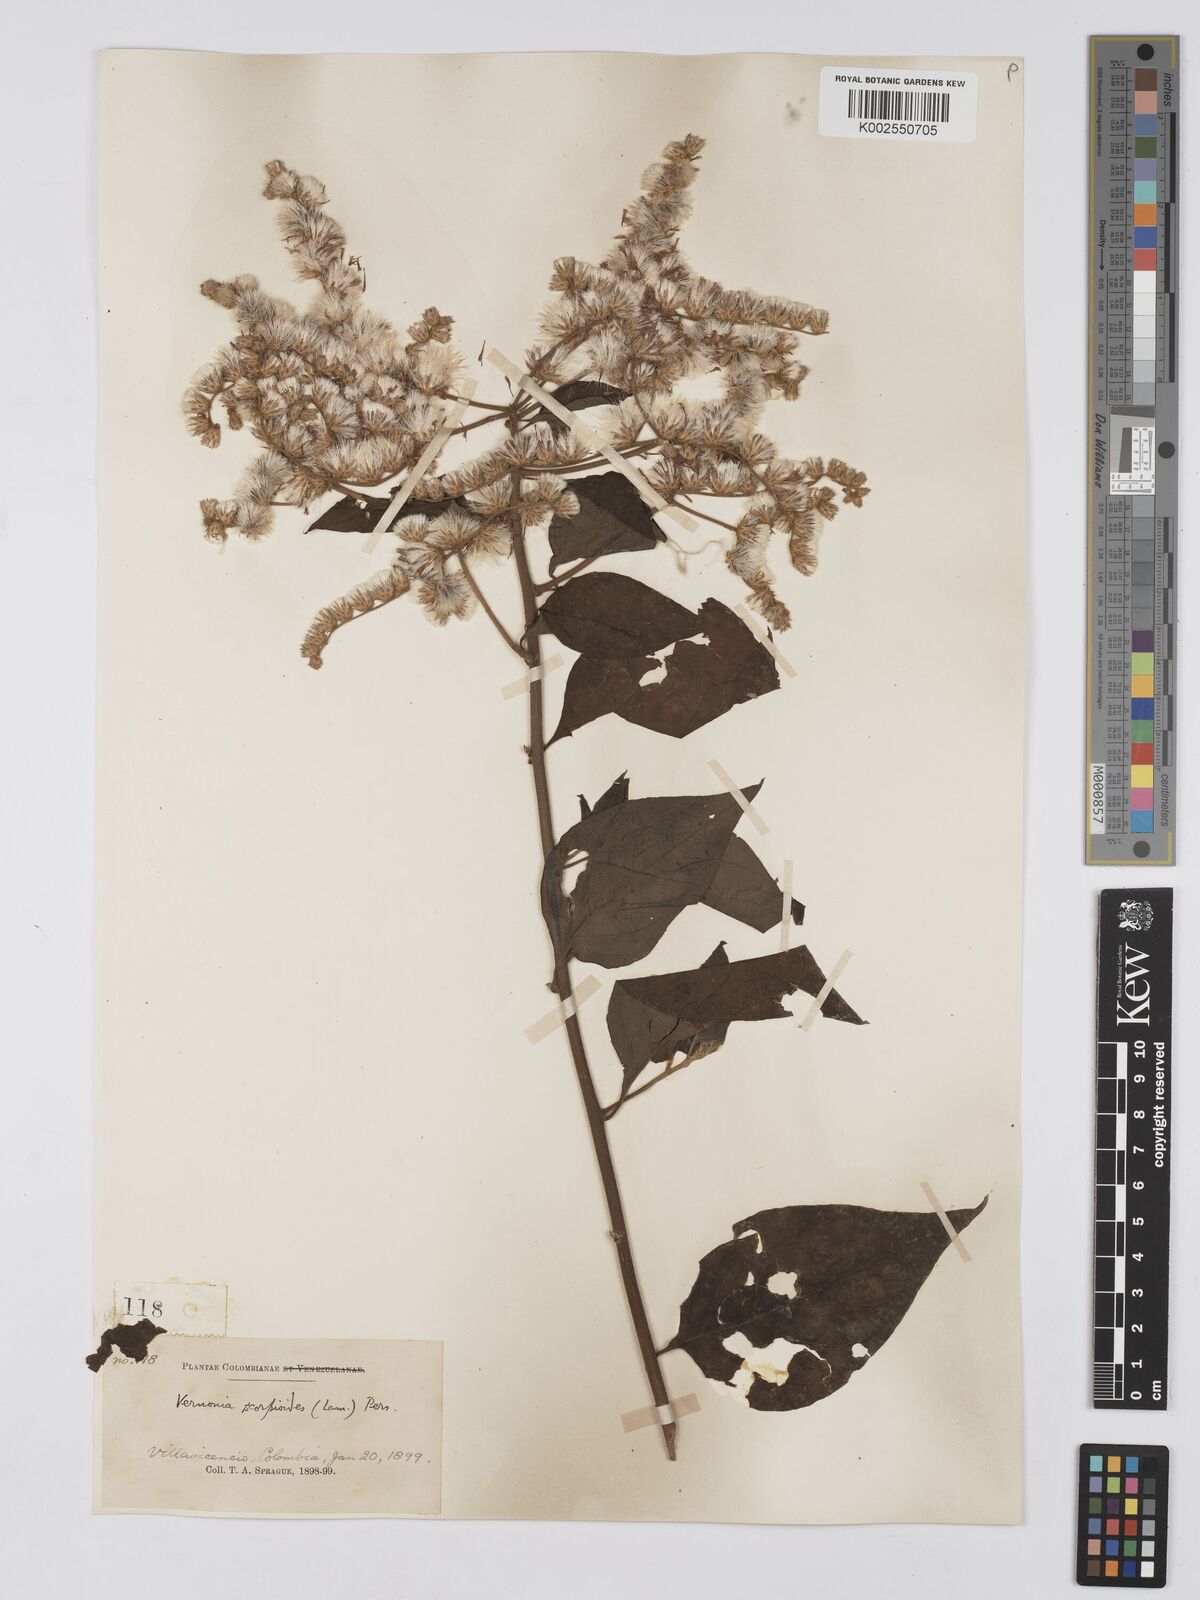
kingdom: Plantae
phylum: Tracheophyta
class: Magnoliopsida
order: Asterales
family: Asteraceae
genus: Cyrtocymura
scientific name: Cyrtocymura scorpioides
